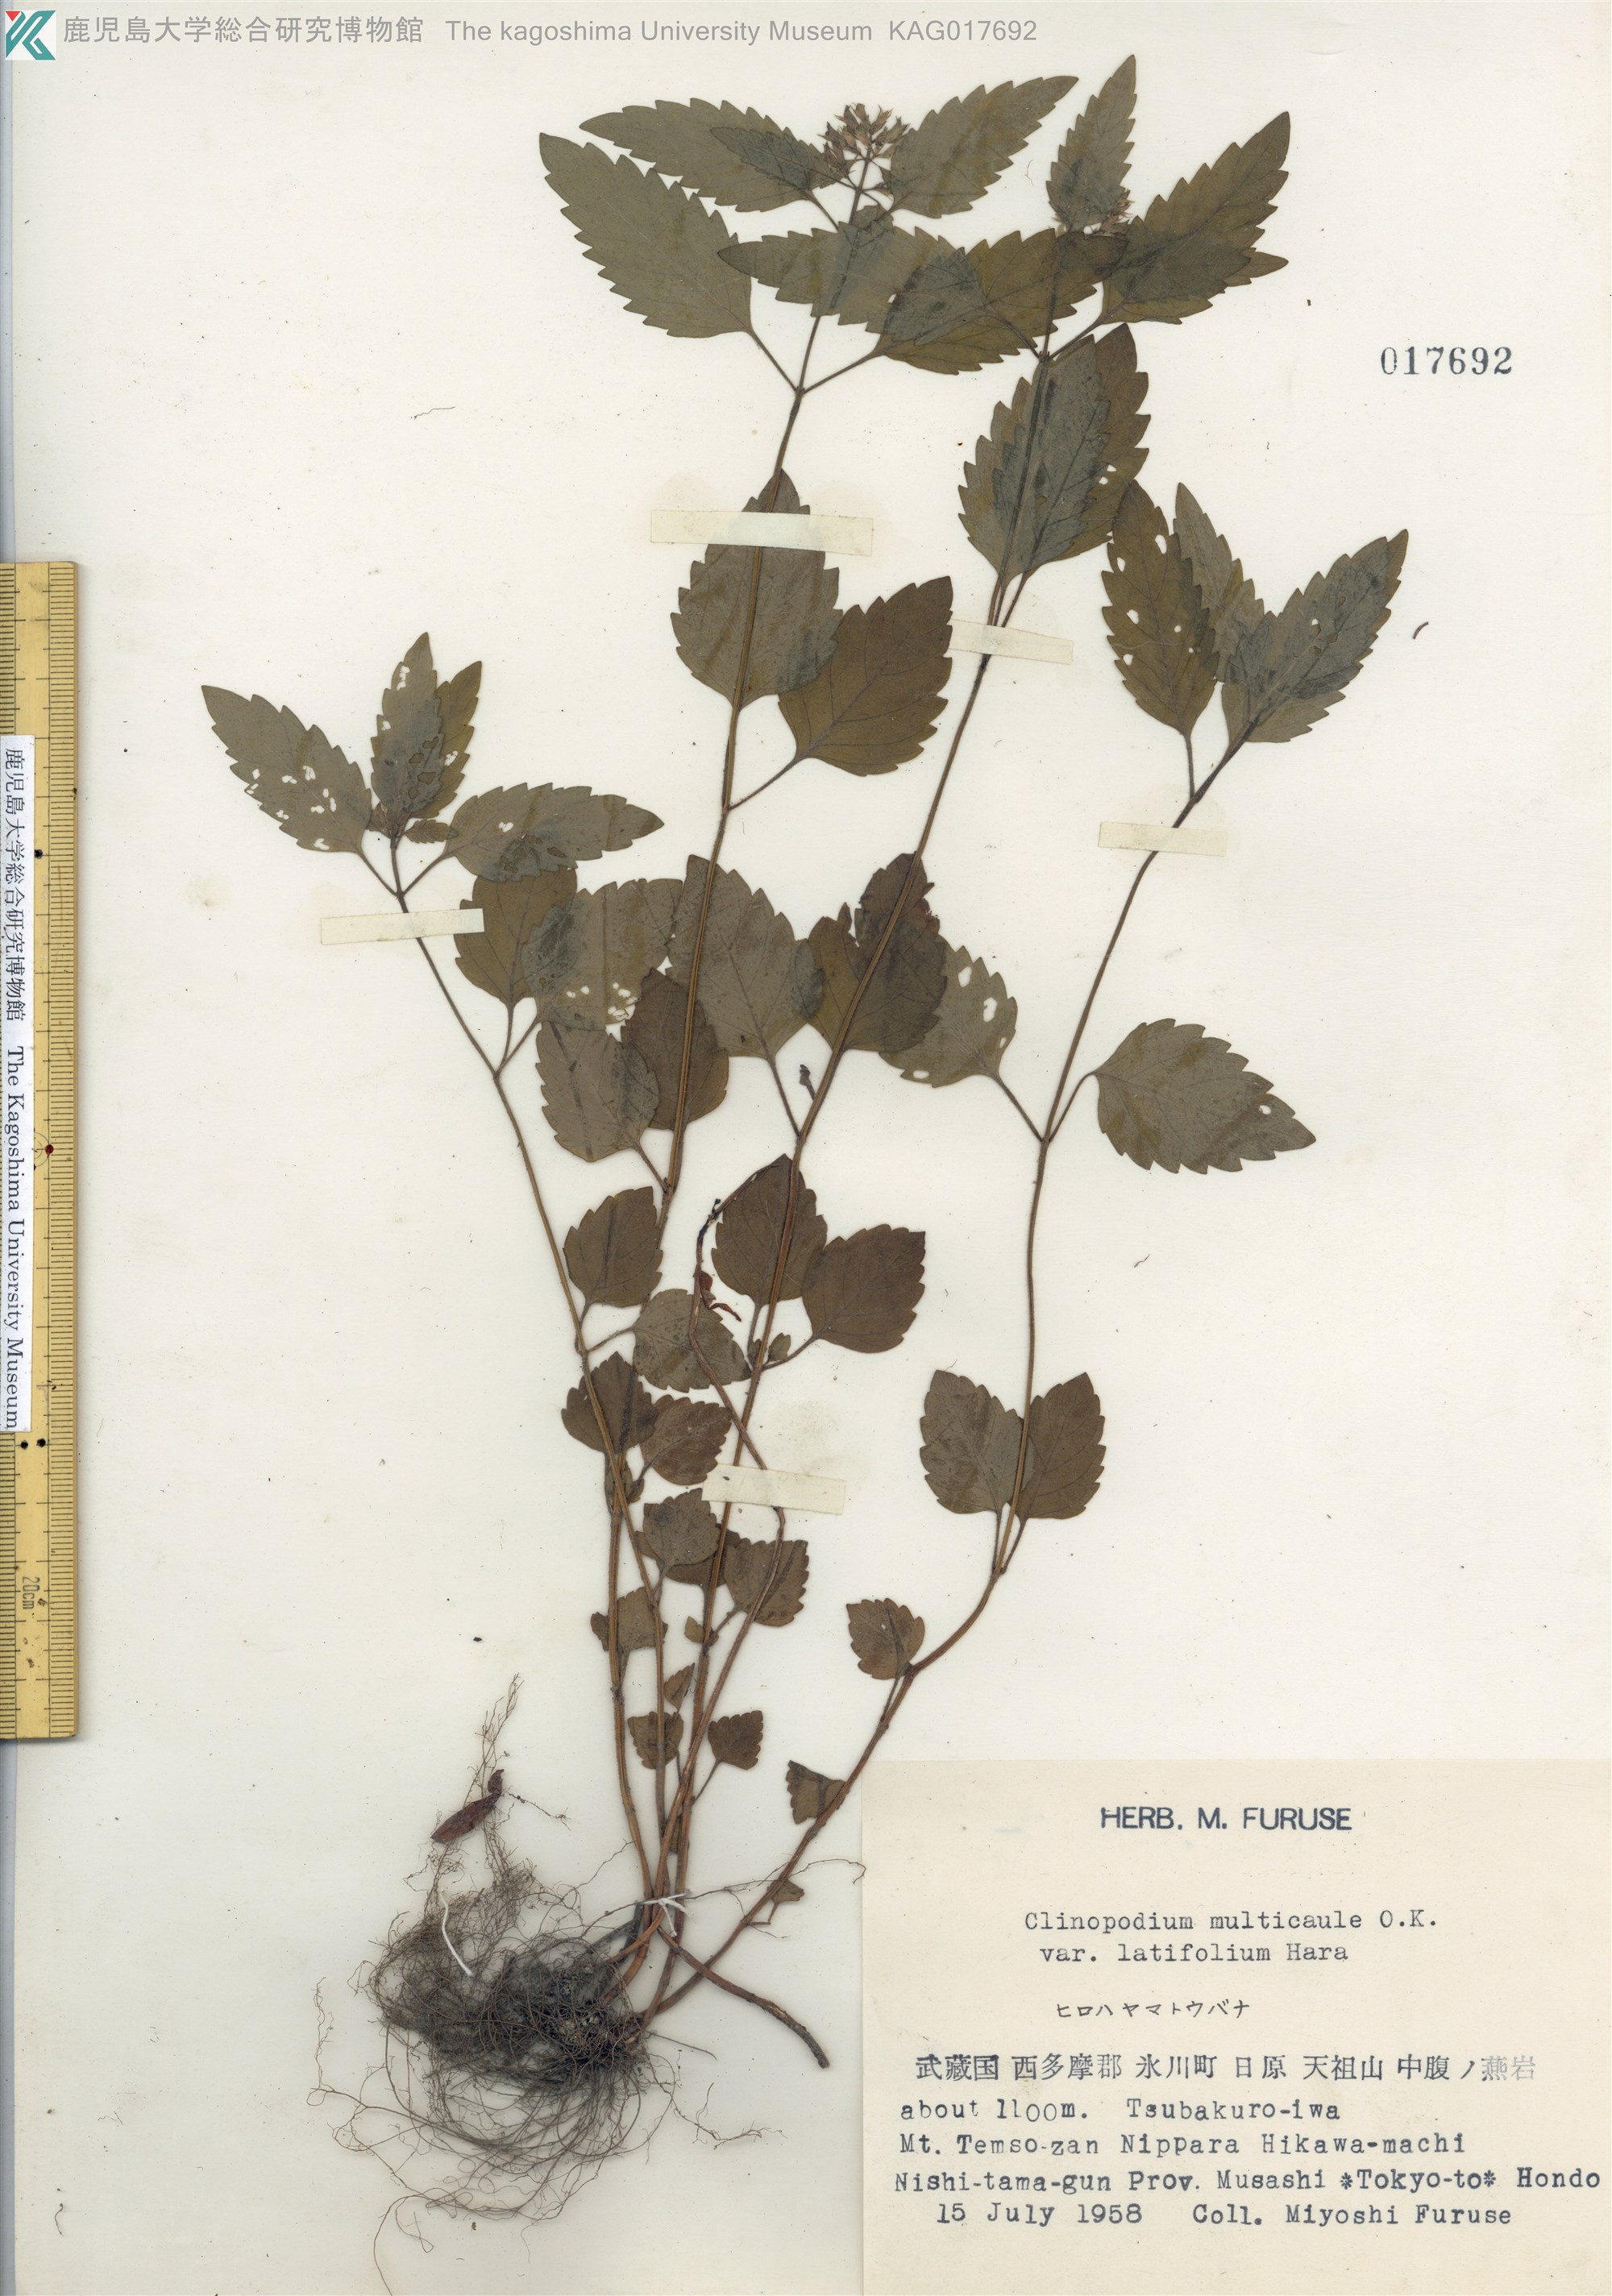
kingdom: Plantae
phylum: Tracheophyta
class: Magnoliopsida
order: Lamiales
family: Lamiaceae
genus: Clinopodium
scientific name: Clinopodium multicaule
